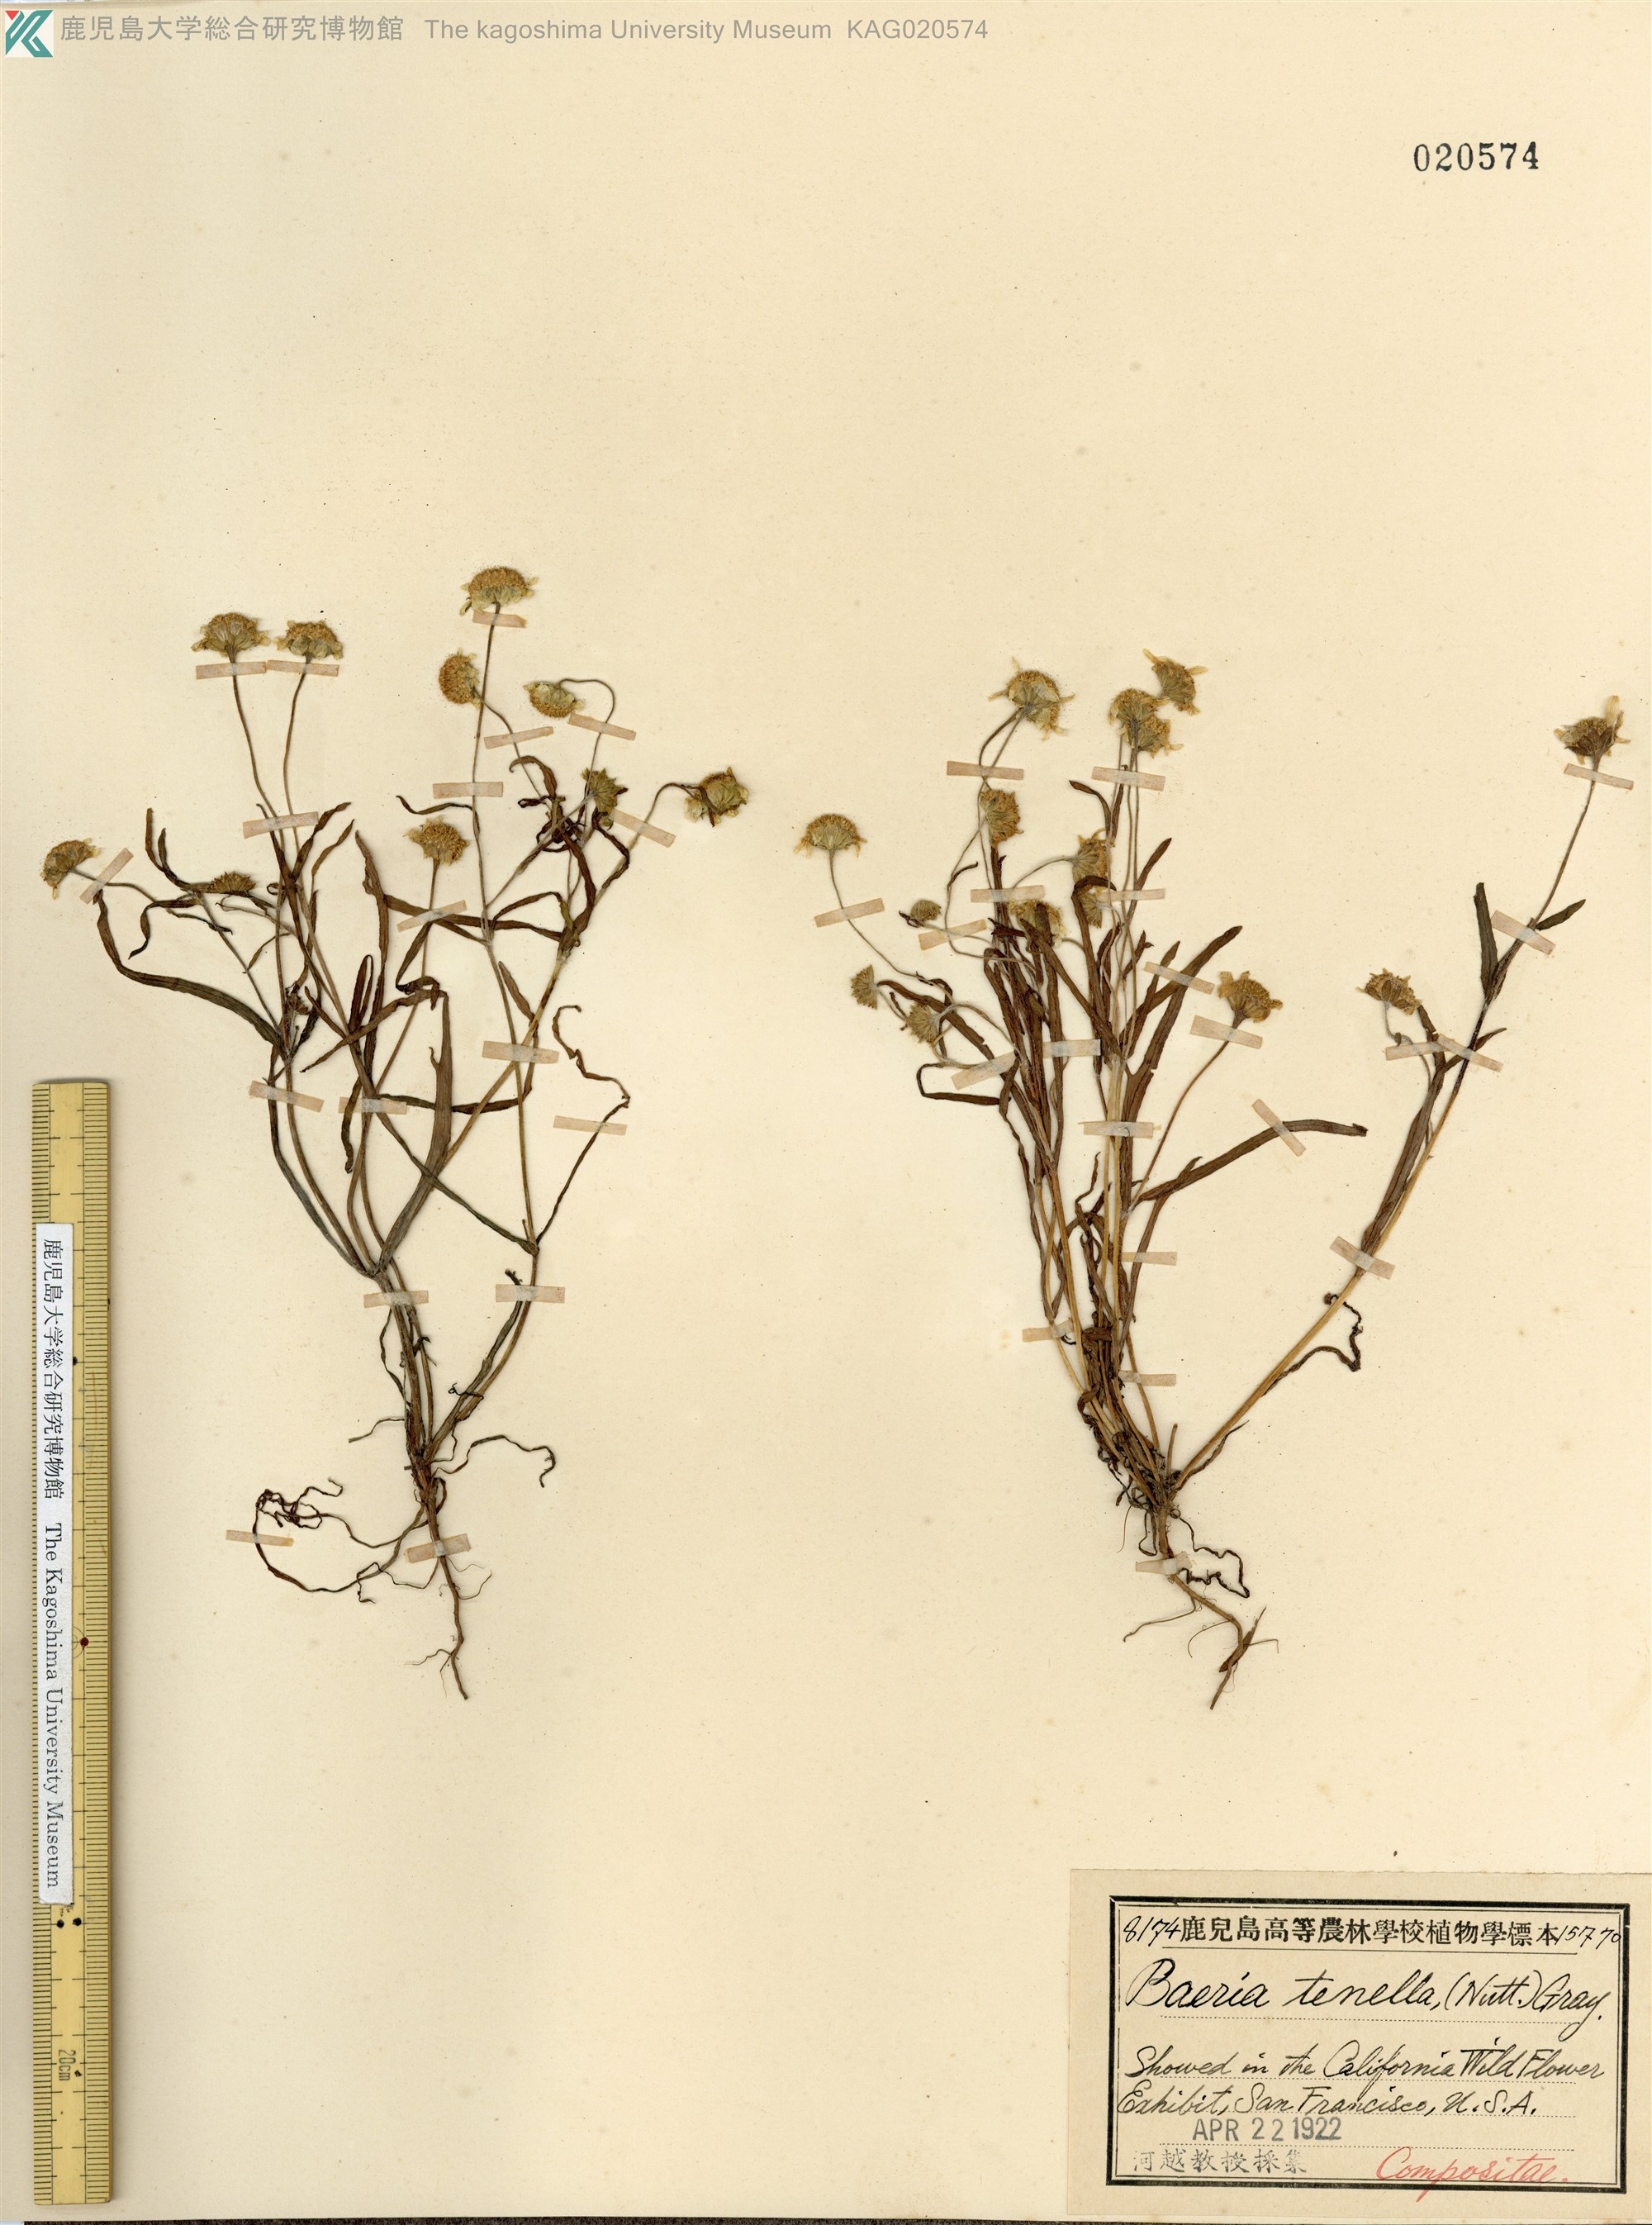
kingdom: Plantae
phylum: Tracheophyta
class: Magnoliopsida
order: Asterales
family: Asteraceae
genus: Lasthenia
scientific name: Lasthenia coronaria
